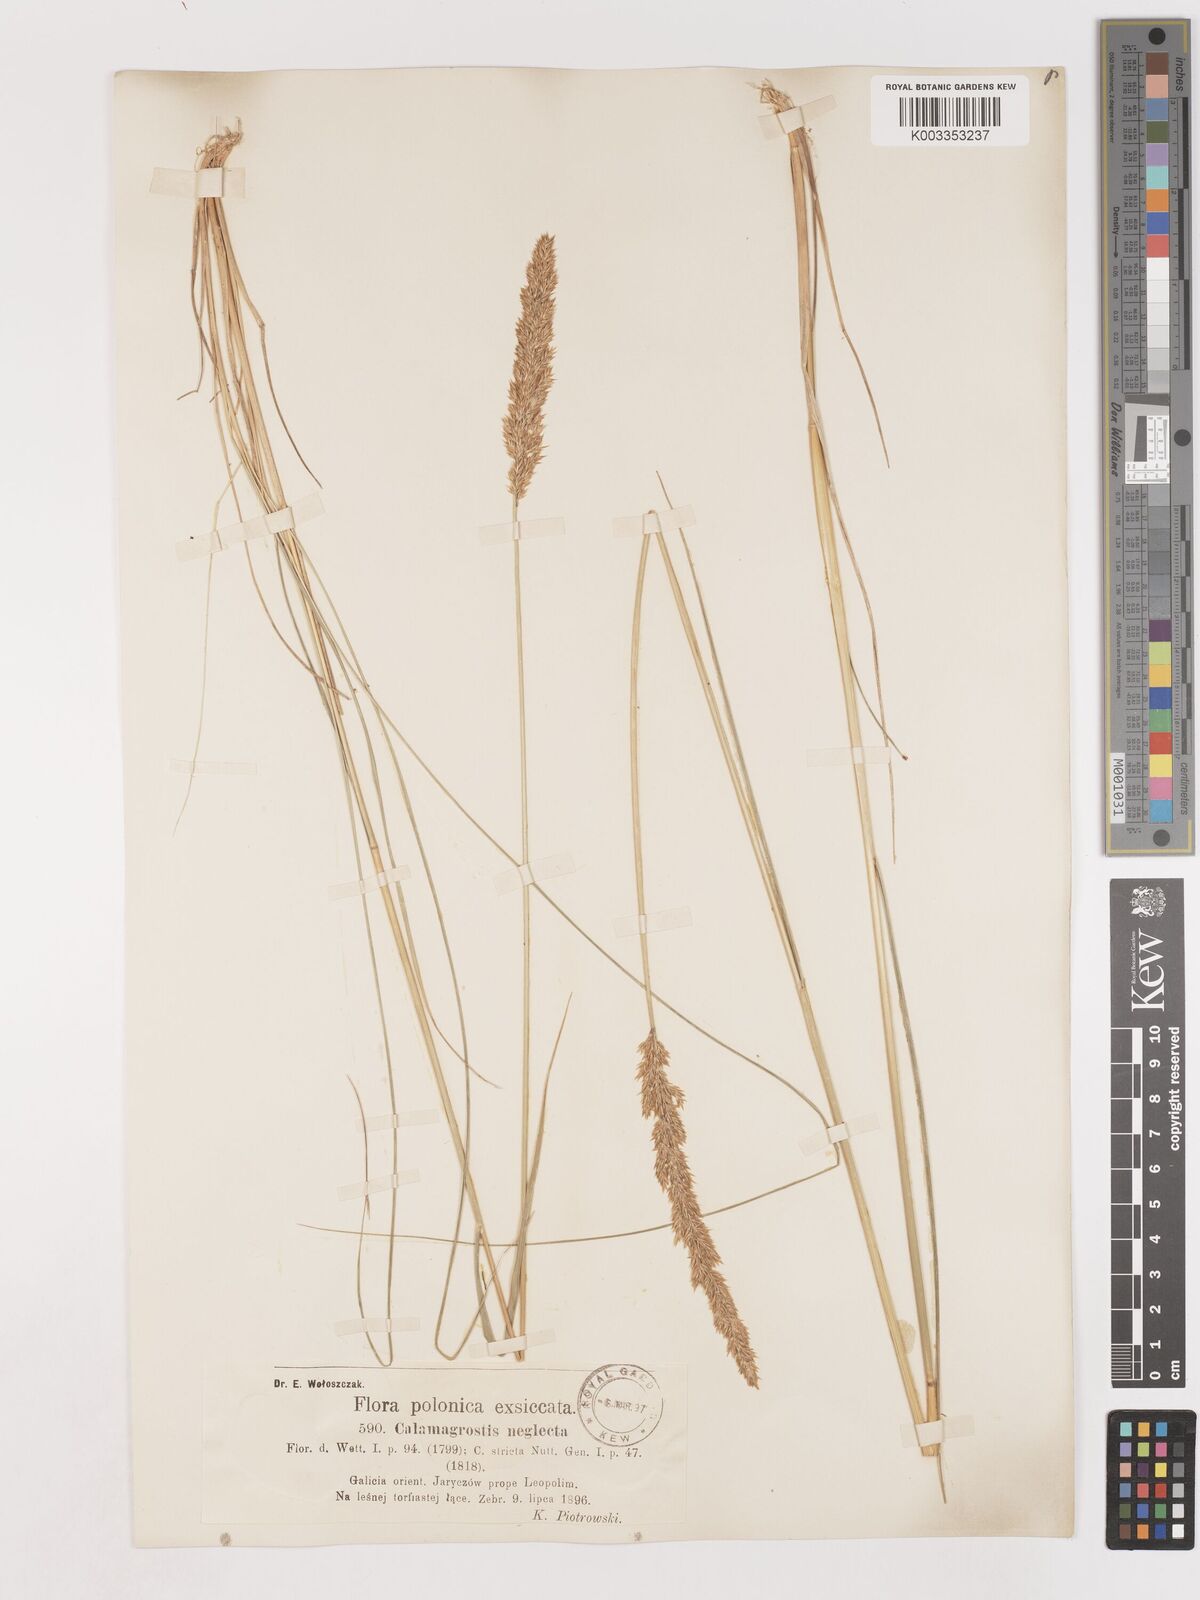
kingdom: Plantae
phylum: Tracheophyta
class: Liliopsida
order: Poales
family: Poaceae
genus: Cinnagrostis
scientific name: Cinnagrostis recta
